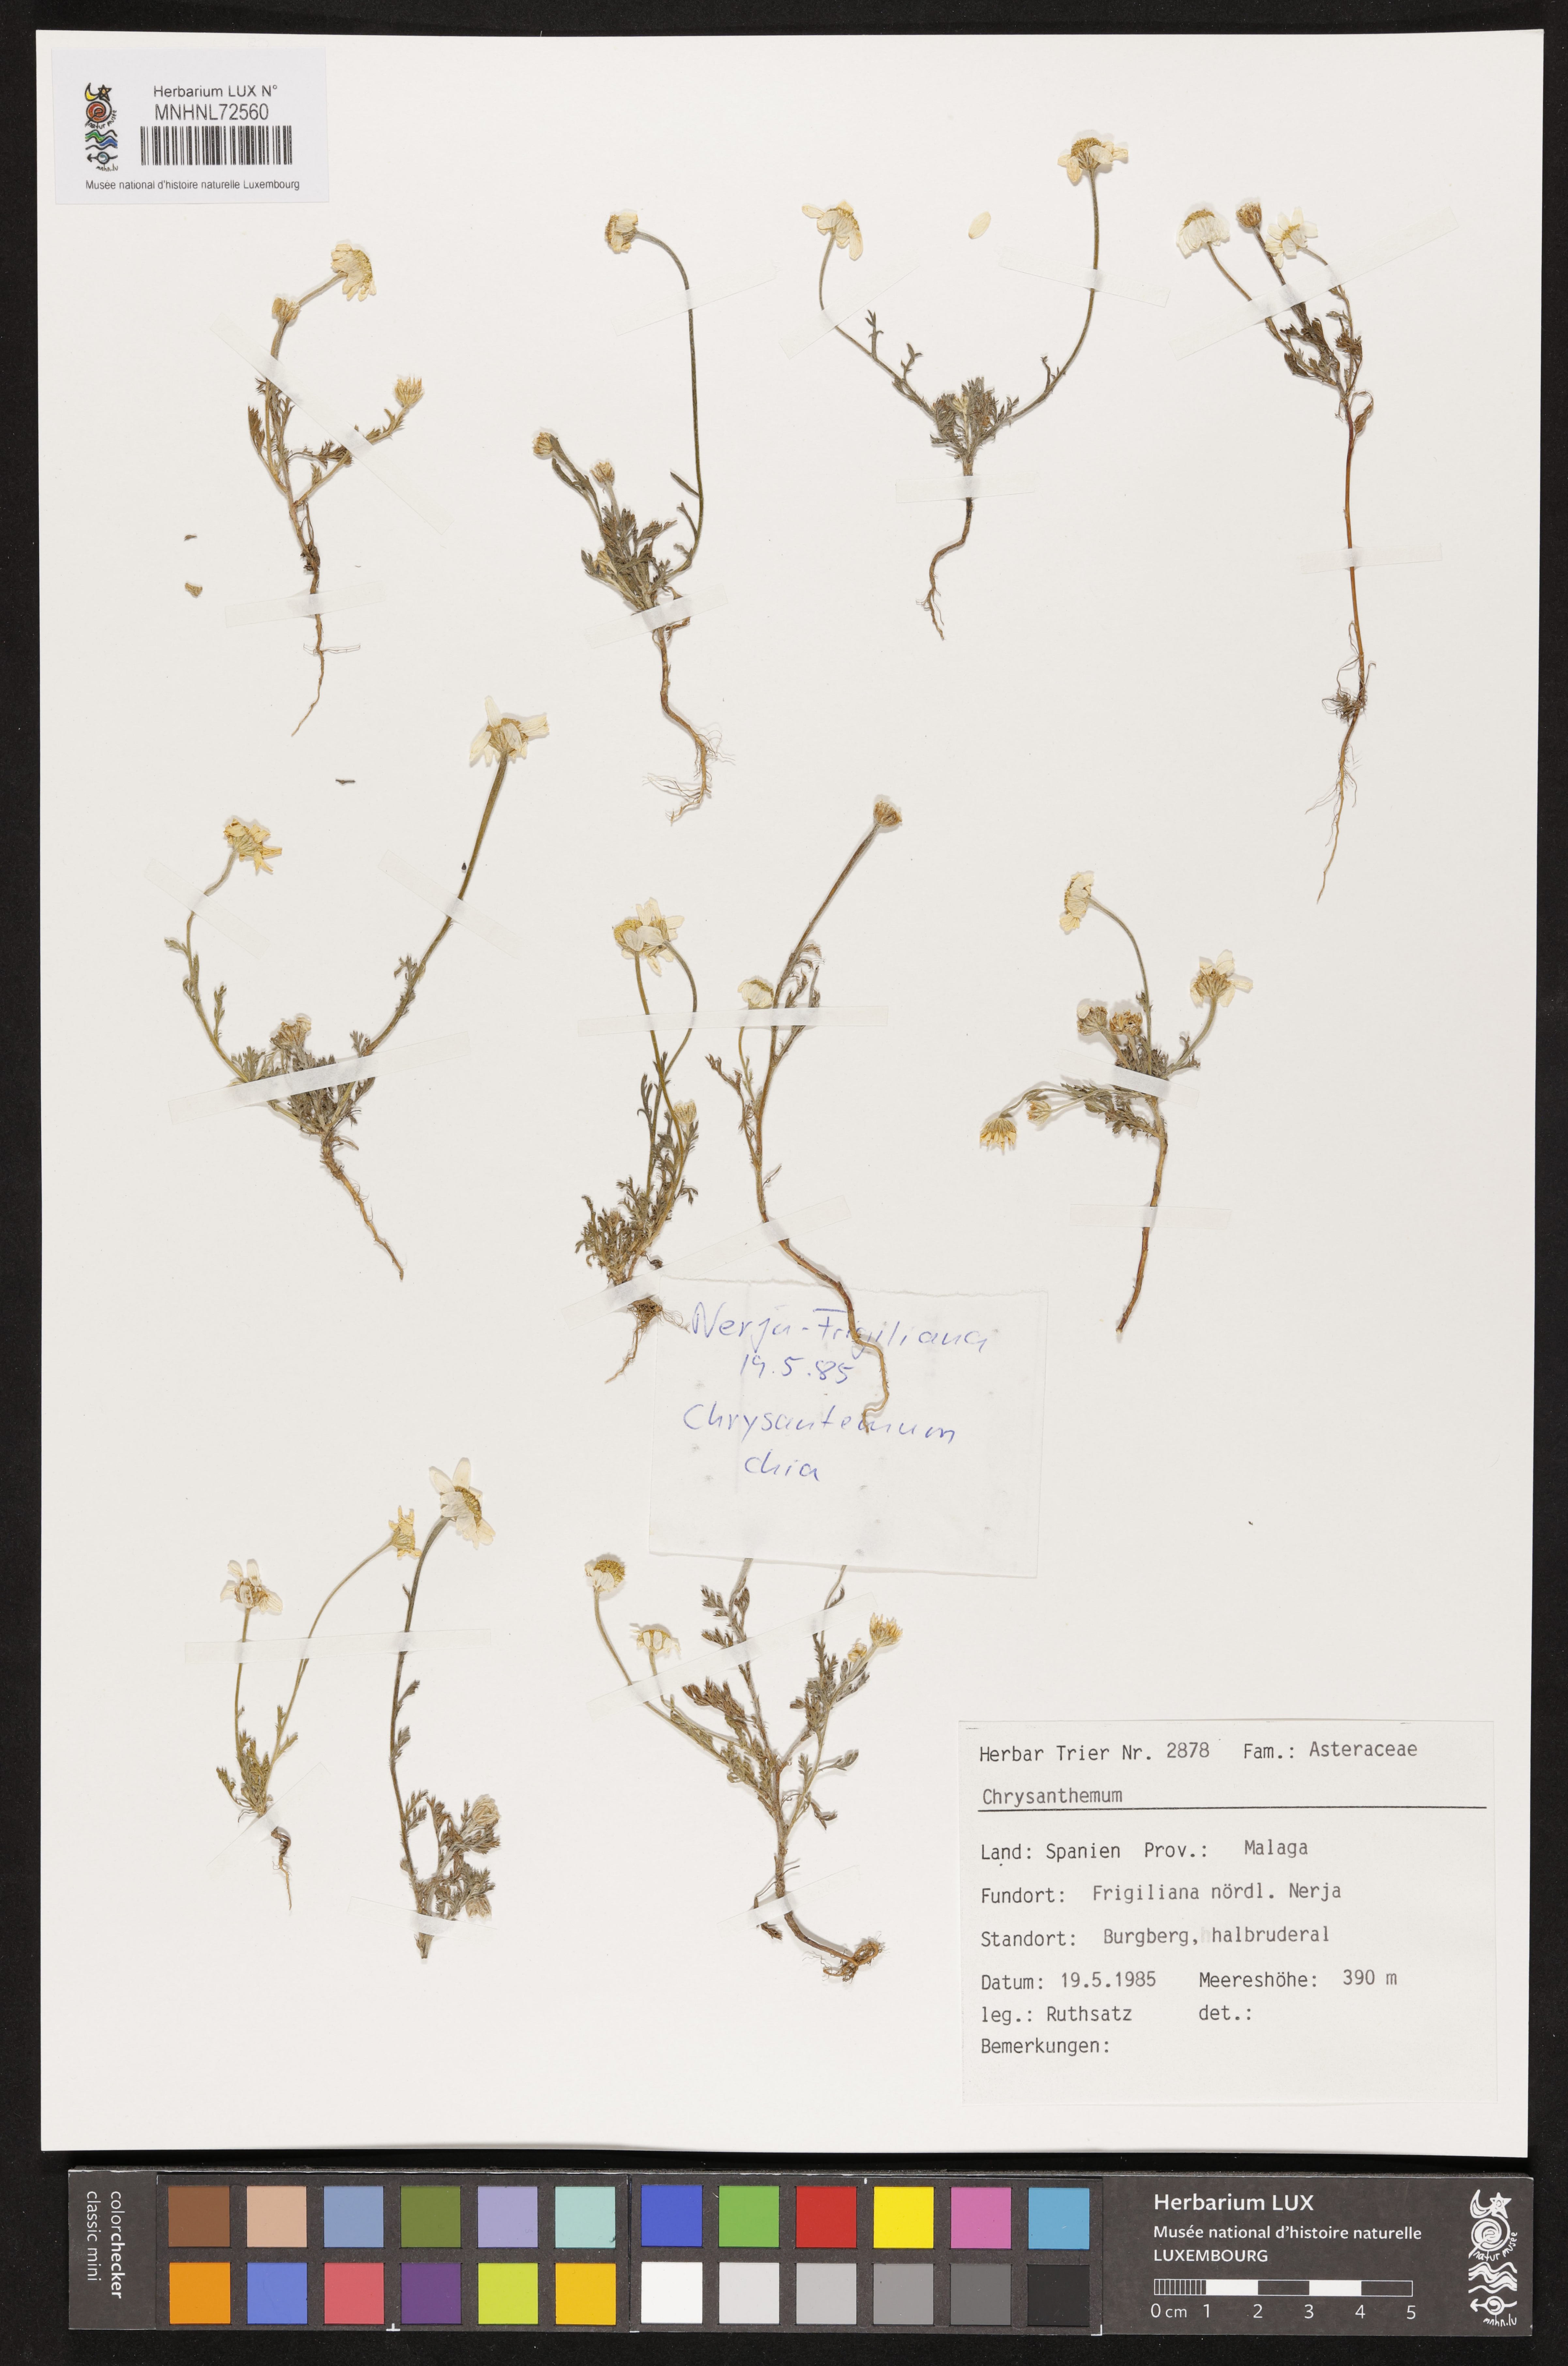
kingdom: Plantae
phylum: Tracheophyta
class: Magnoliopsida
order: Asterales
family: Asteraceae
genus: Chrysanthemum
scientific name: Chrysanthemum
